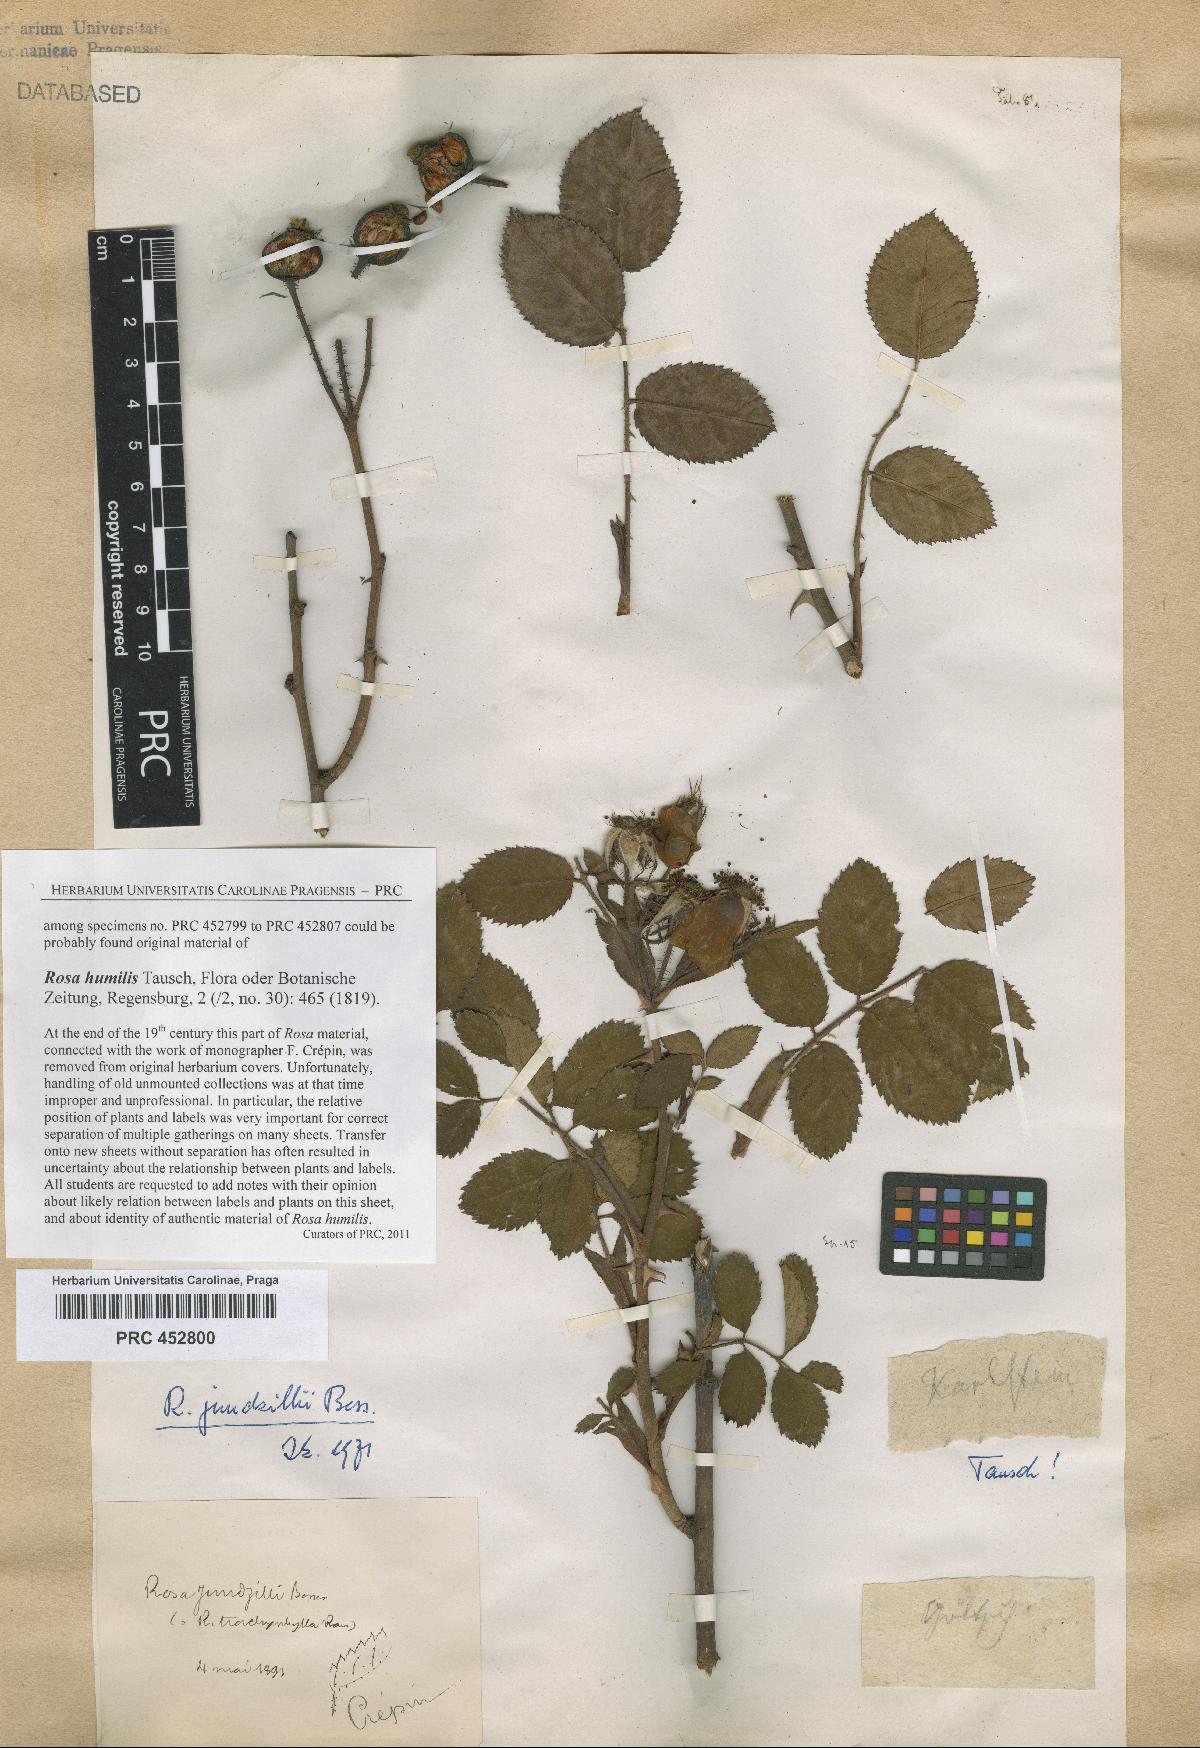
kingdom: Plantae
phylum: Tracheophyta
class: Magnoliopsida
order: Rosales
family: Rosaceae
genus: Rosa
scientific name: Rosa marginata
